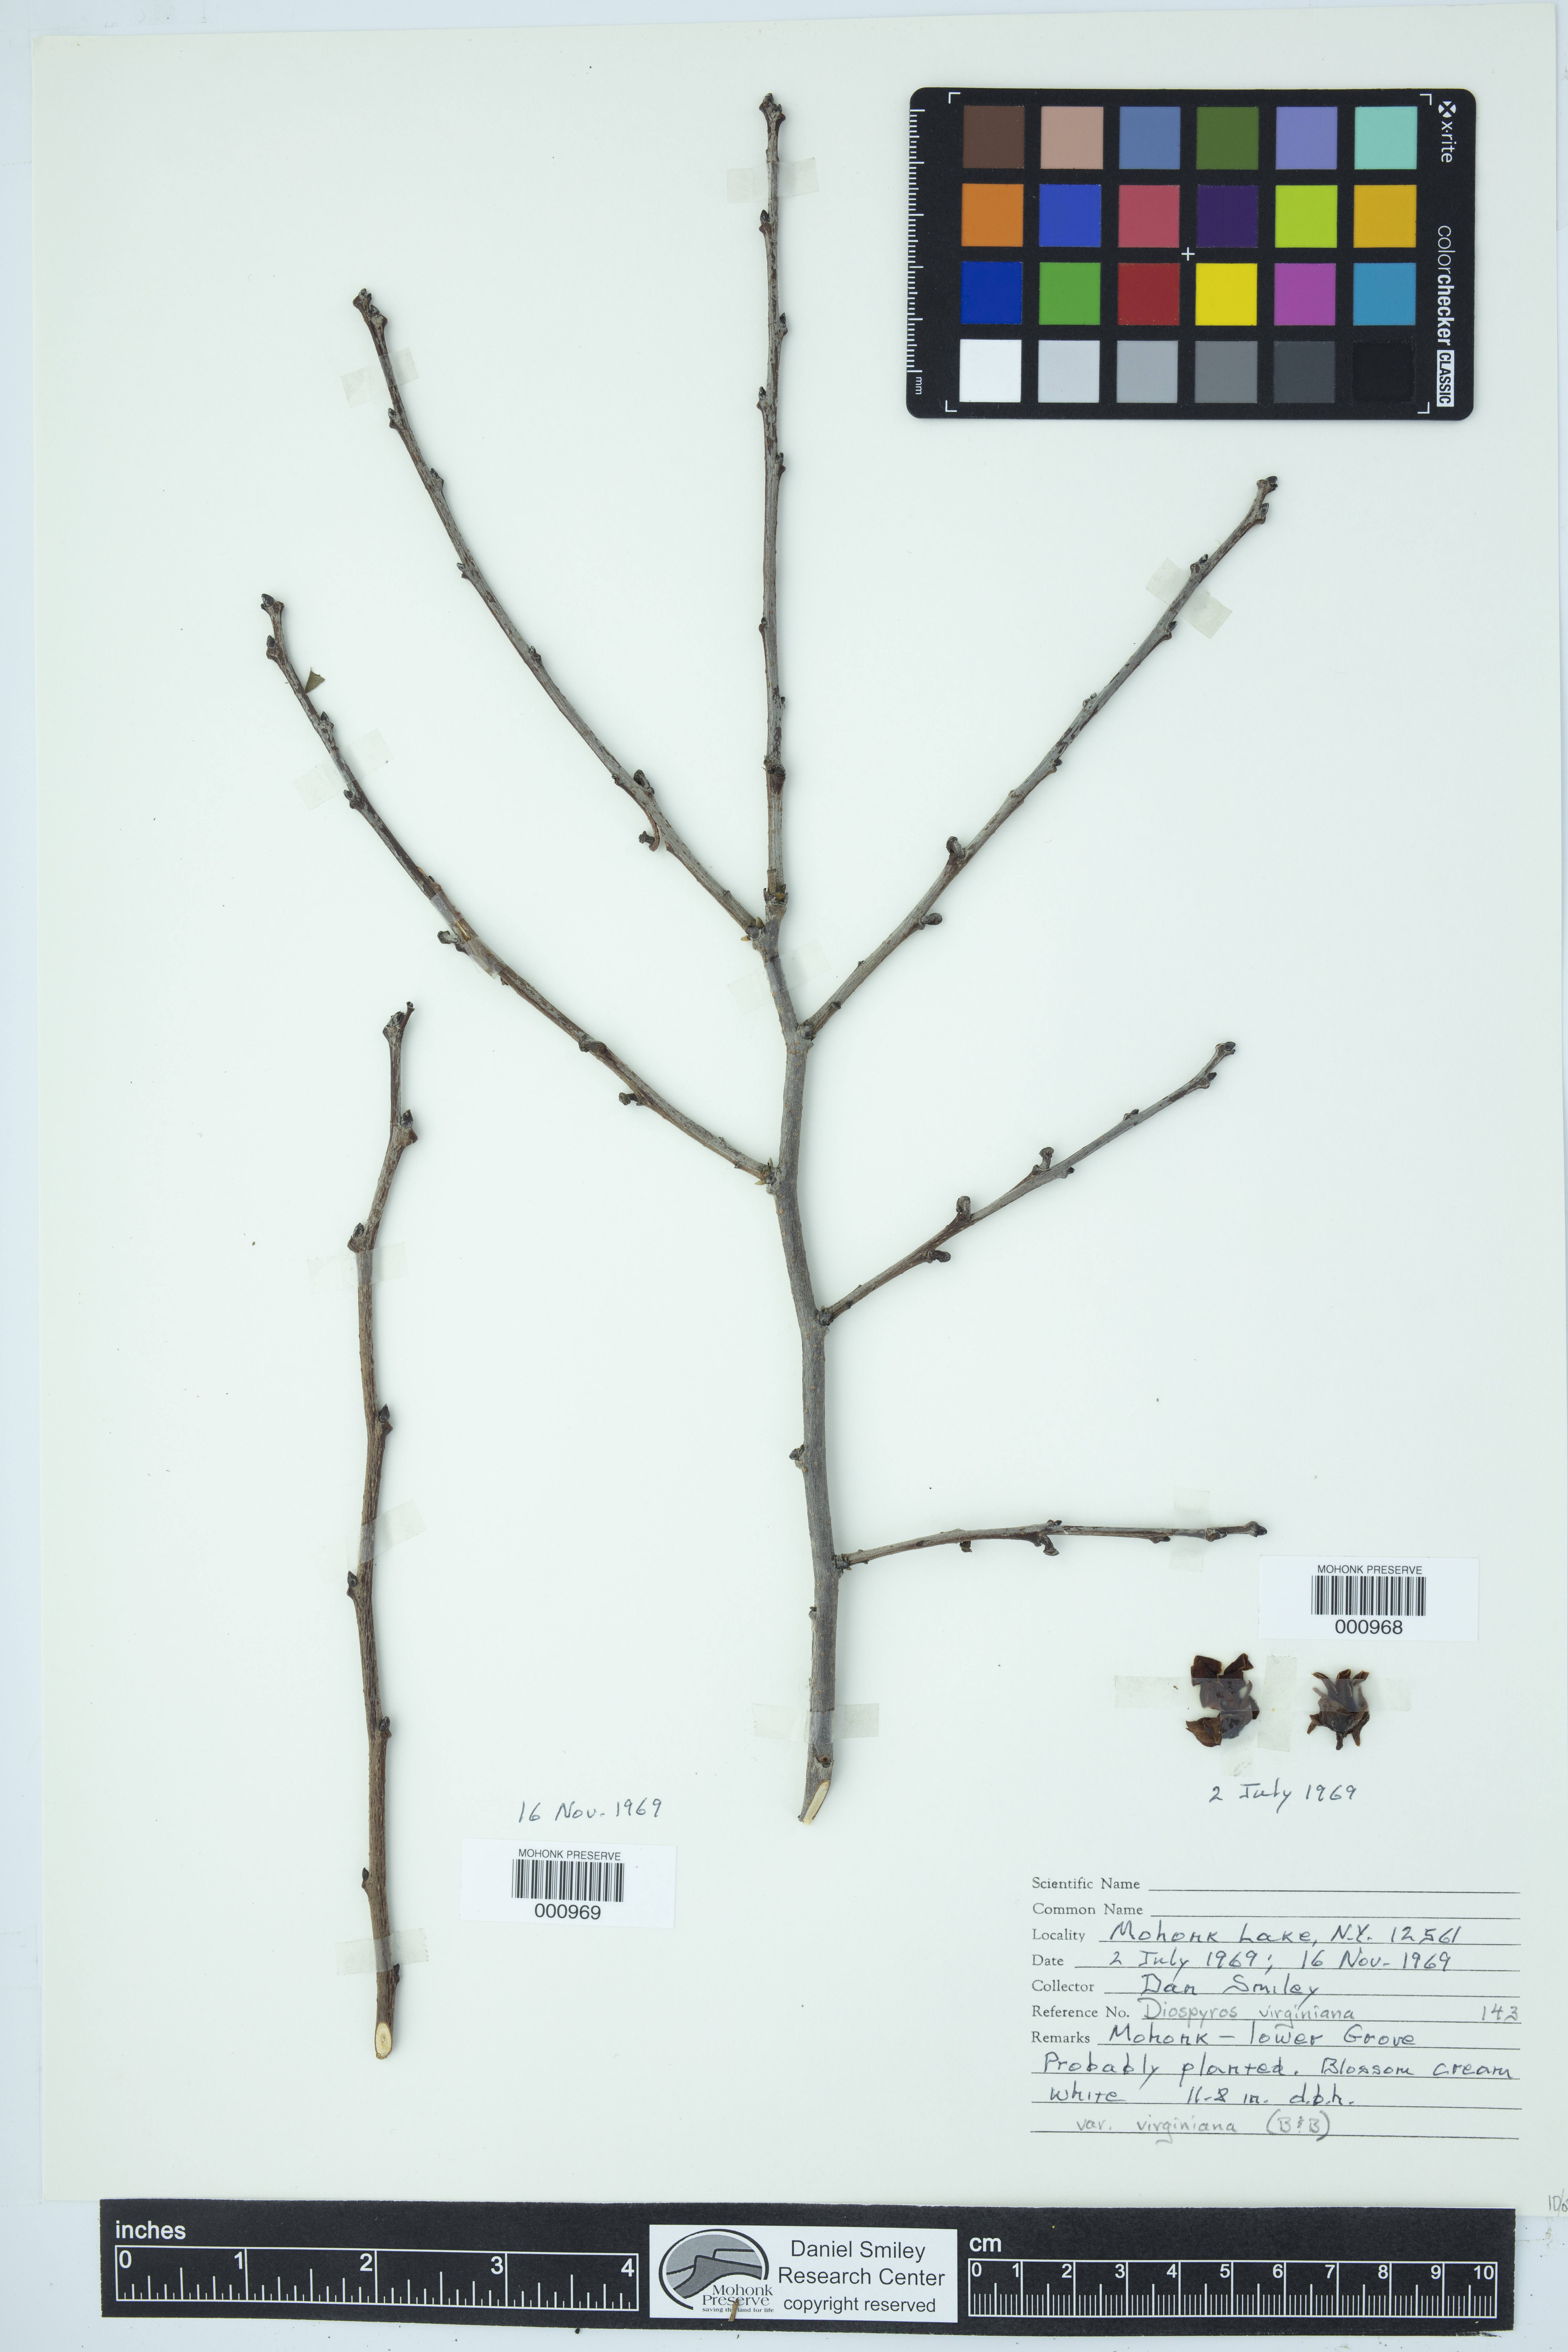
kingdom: Plantae
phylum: Tracheophyta
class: Magnoliopsida
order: Ericales
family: Ebenaceae
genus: Diospyros
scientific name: Diospyros virginiana
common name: Persimmon
